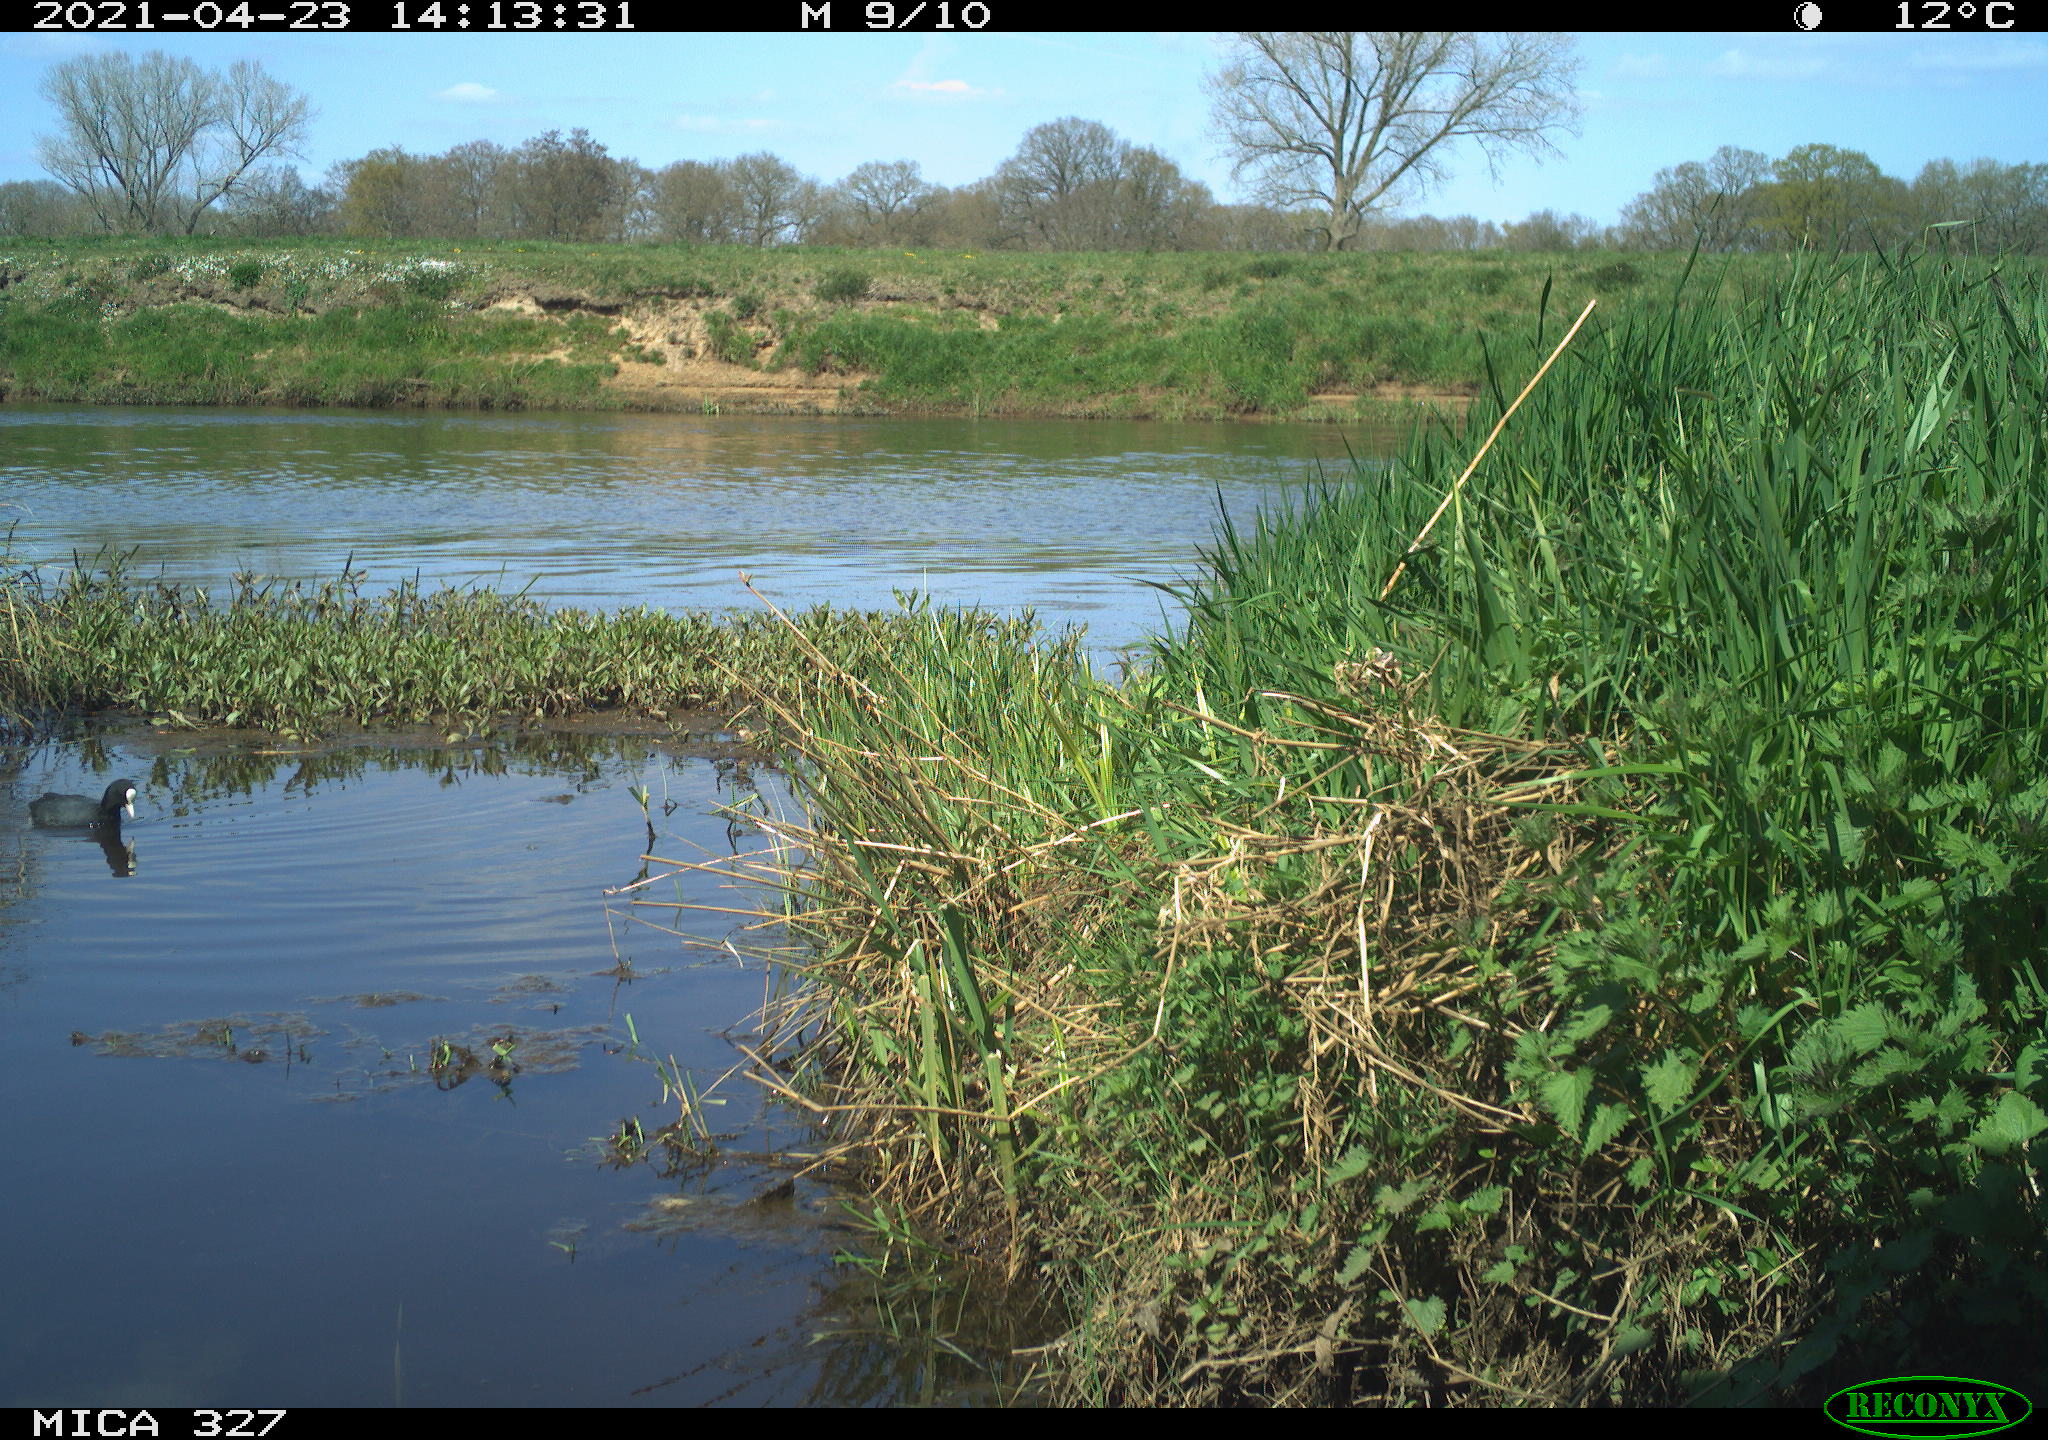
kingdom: Animalia
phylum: Chordata
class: Aves
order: Gruiformes
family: Rallidae
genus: Fulica
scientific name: Fulica atra
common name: Eurasian coot
